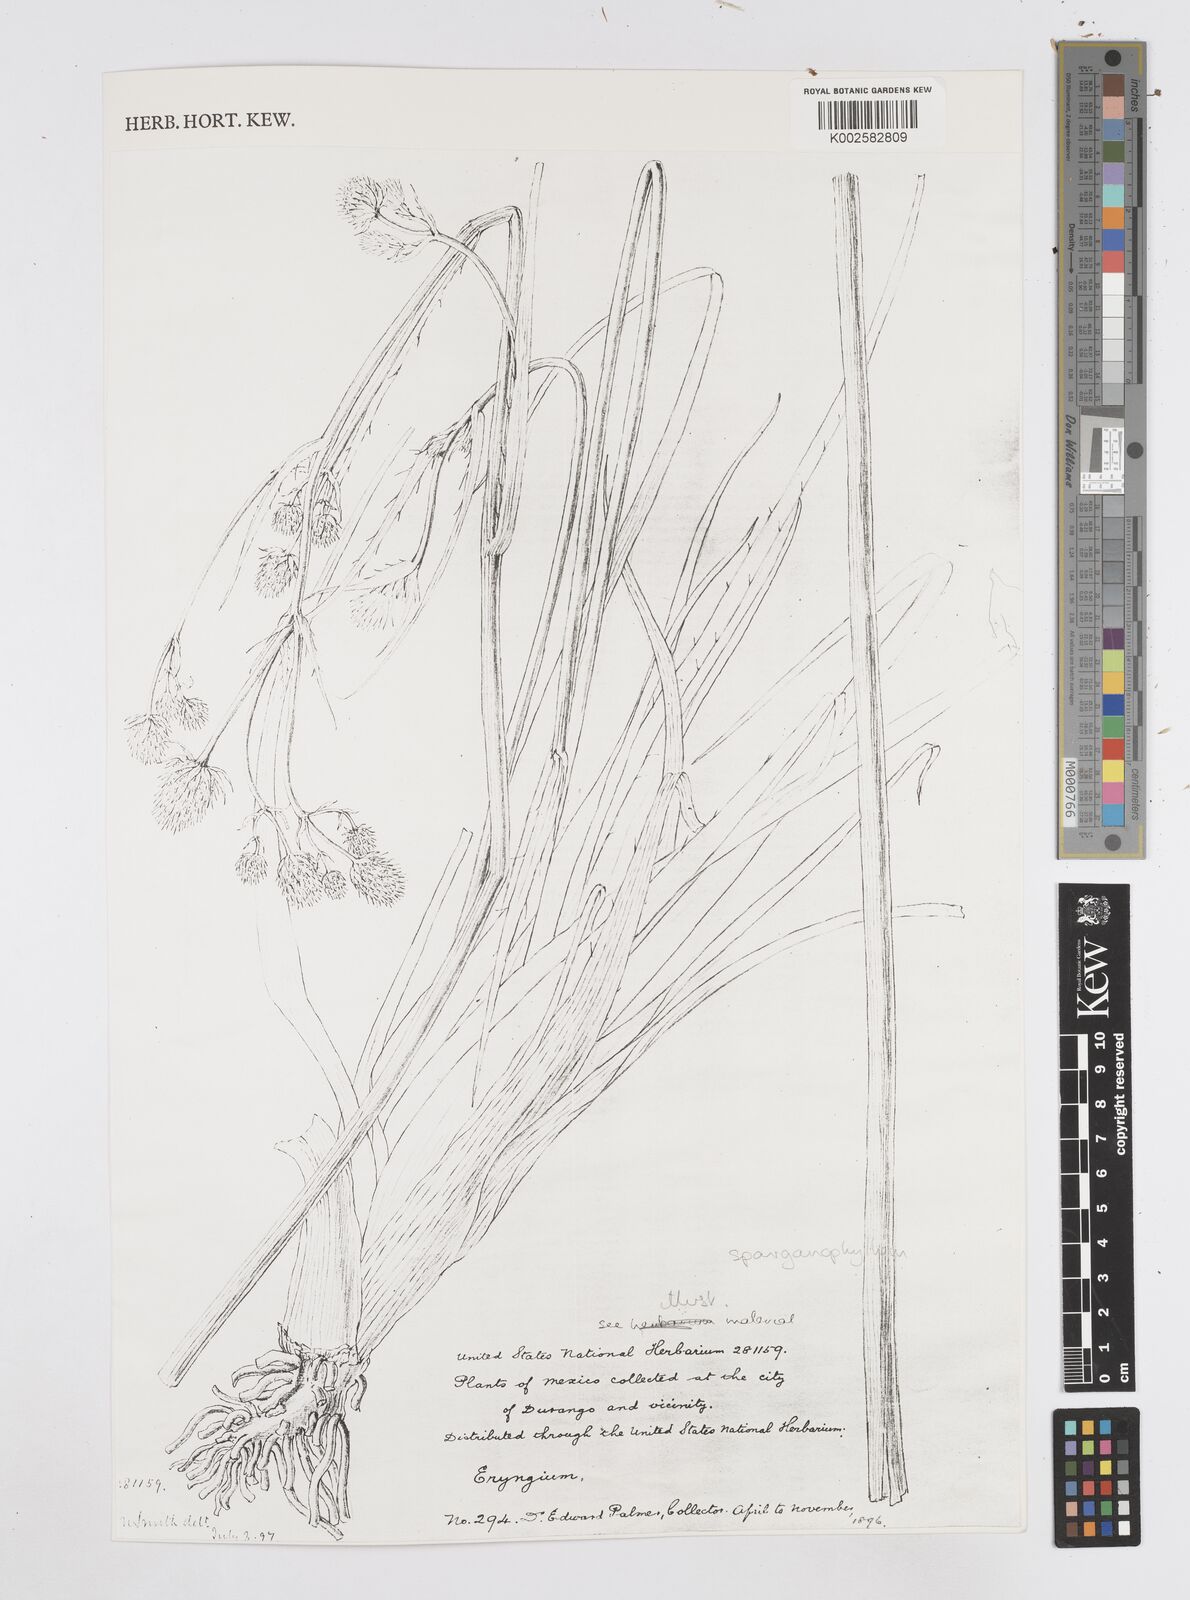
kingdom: Plantae
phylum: Tracheophyta
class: Magnoliopsida
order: Apiales
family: Apiaceae
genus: Eryngium
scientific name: Eryngium sparganophyllum
